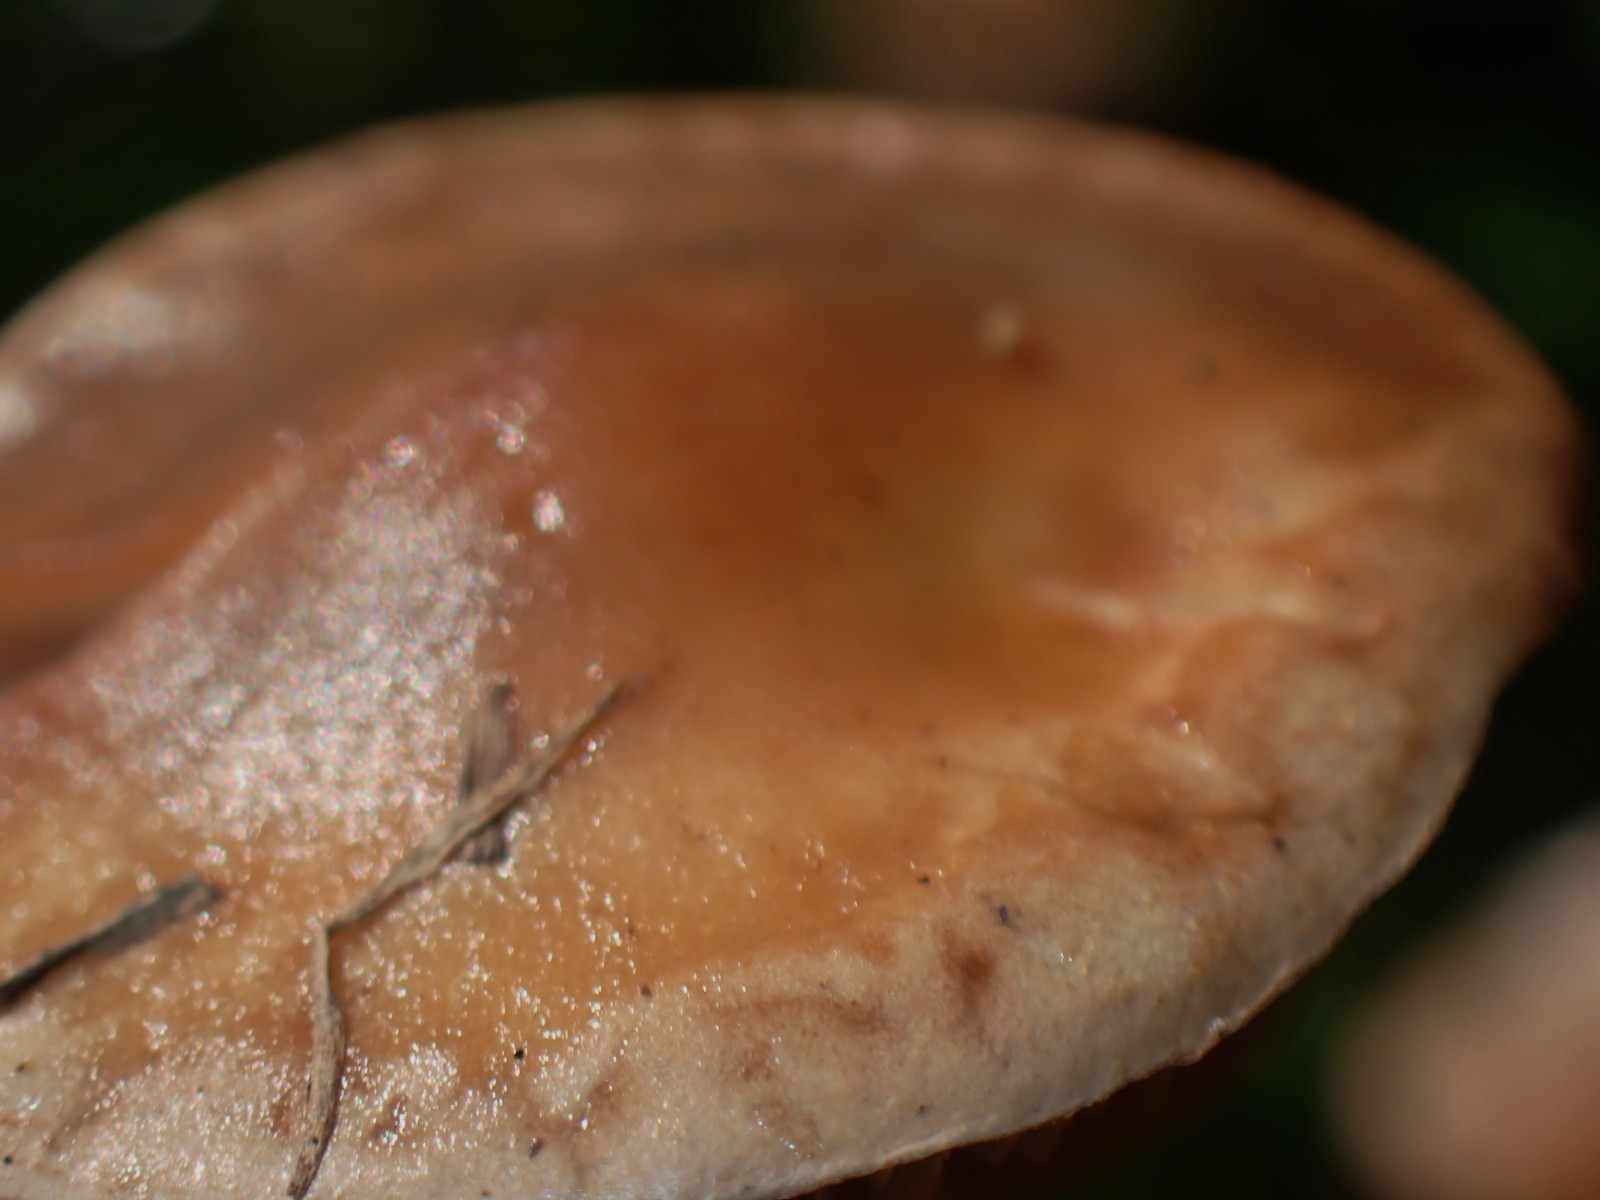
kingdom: Fungi
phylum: Basidiomycota
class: Agaricomycetes
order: Agaricales
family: Hymenogastraceae
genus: Hebeloma
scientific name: Hebeloma
